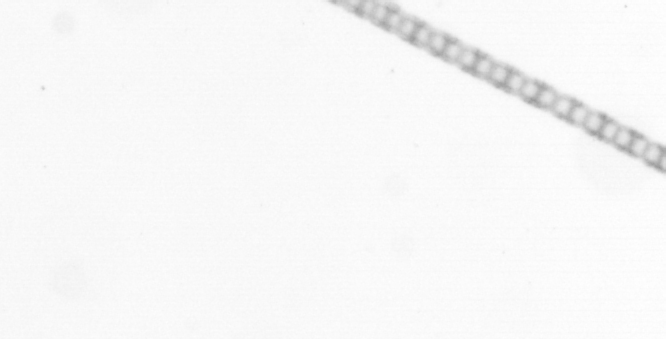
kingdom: Chromista
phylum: Ochrophyta
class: Bacillariophyceae
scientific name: Bacillariophyceae
